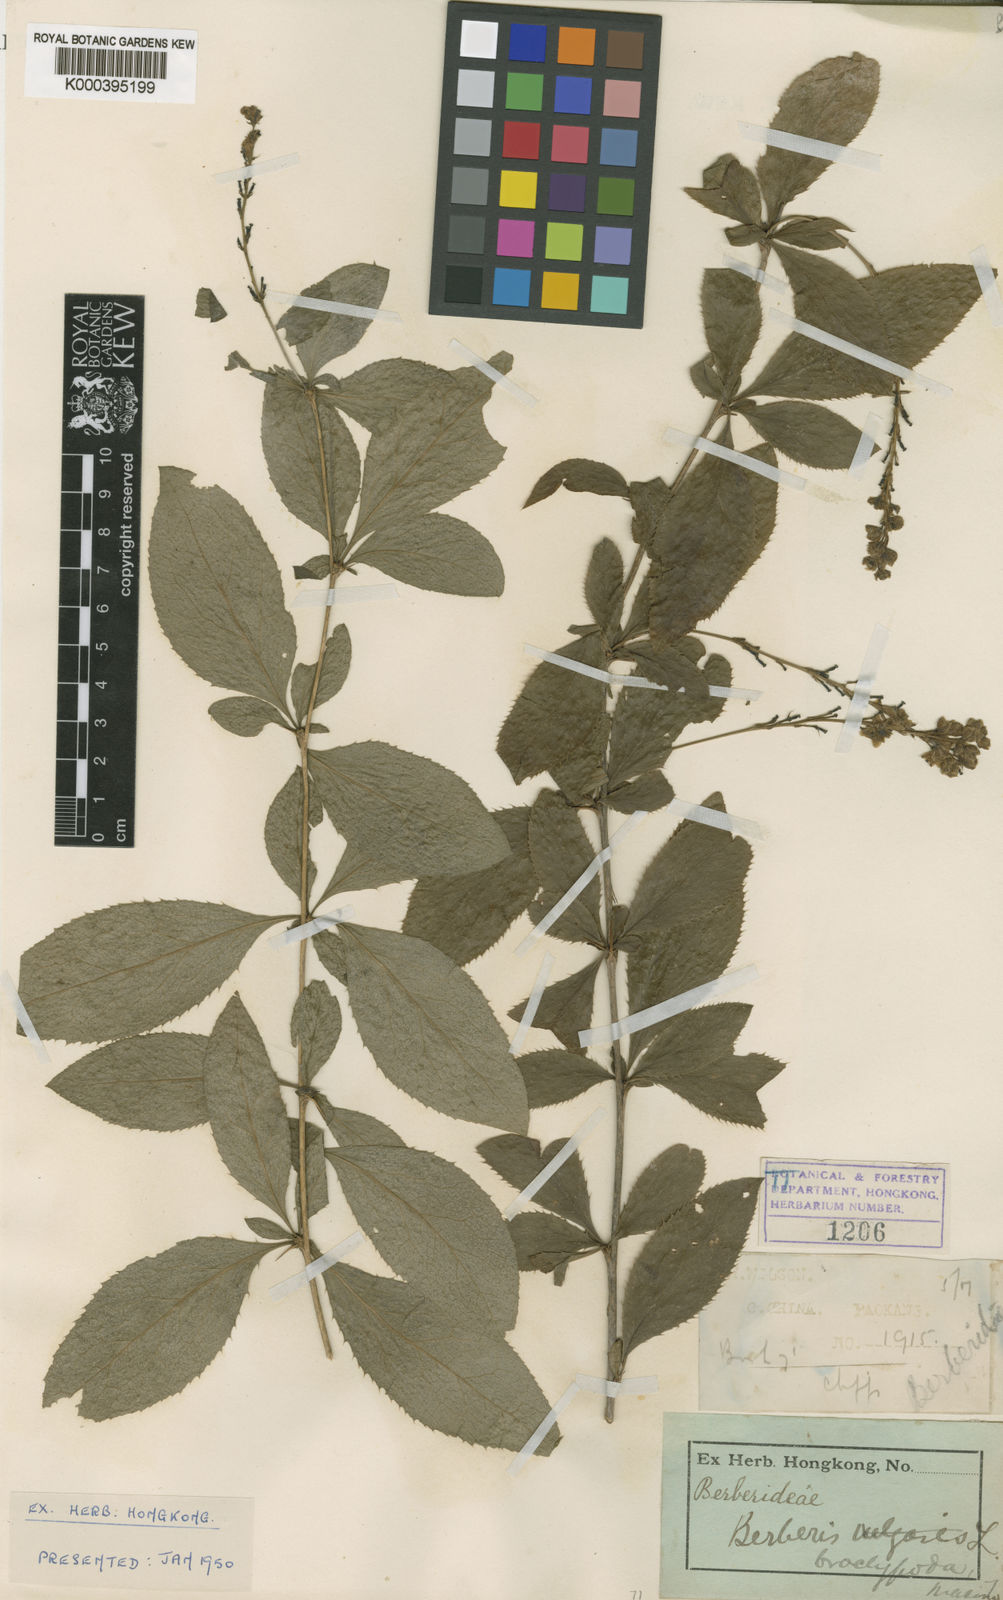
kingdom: Plantae
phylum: Tracheophyta
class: Magnoliopsida
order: Ranunculales
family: Berberidaceae
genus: Berberis
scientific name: Berberis subsessiliflora
